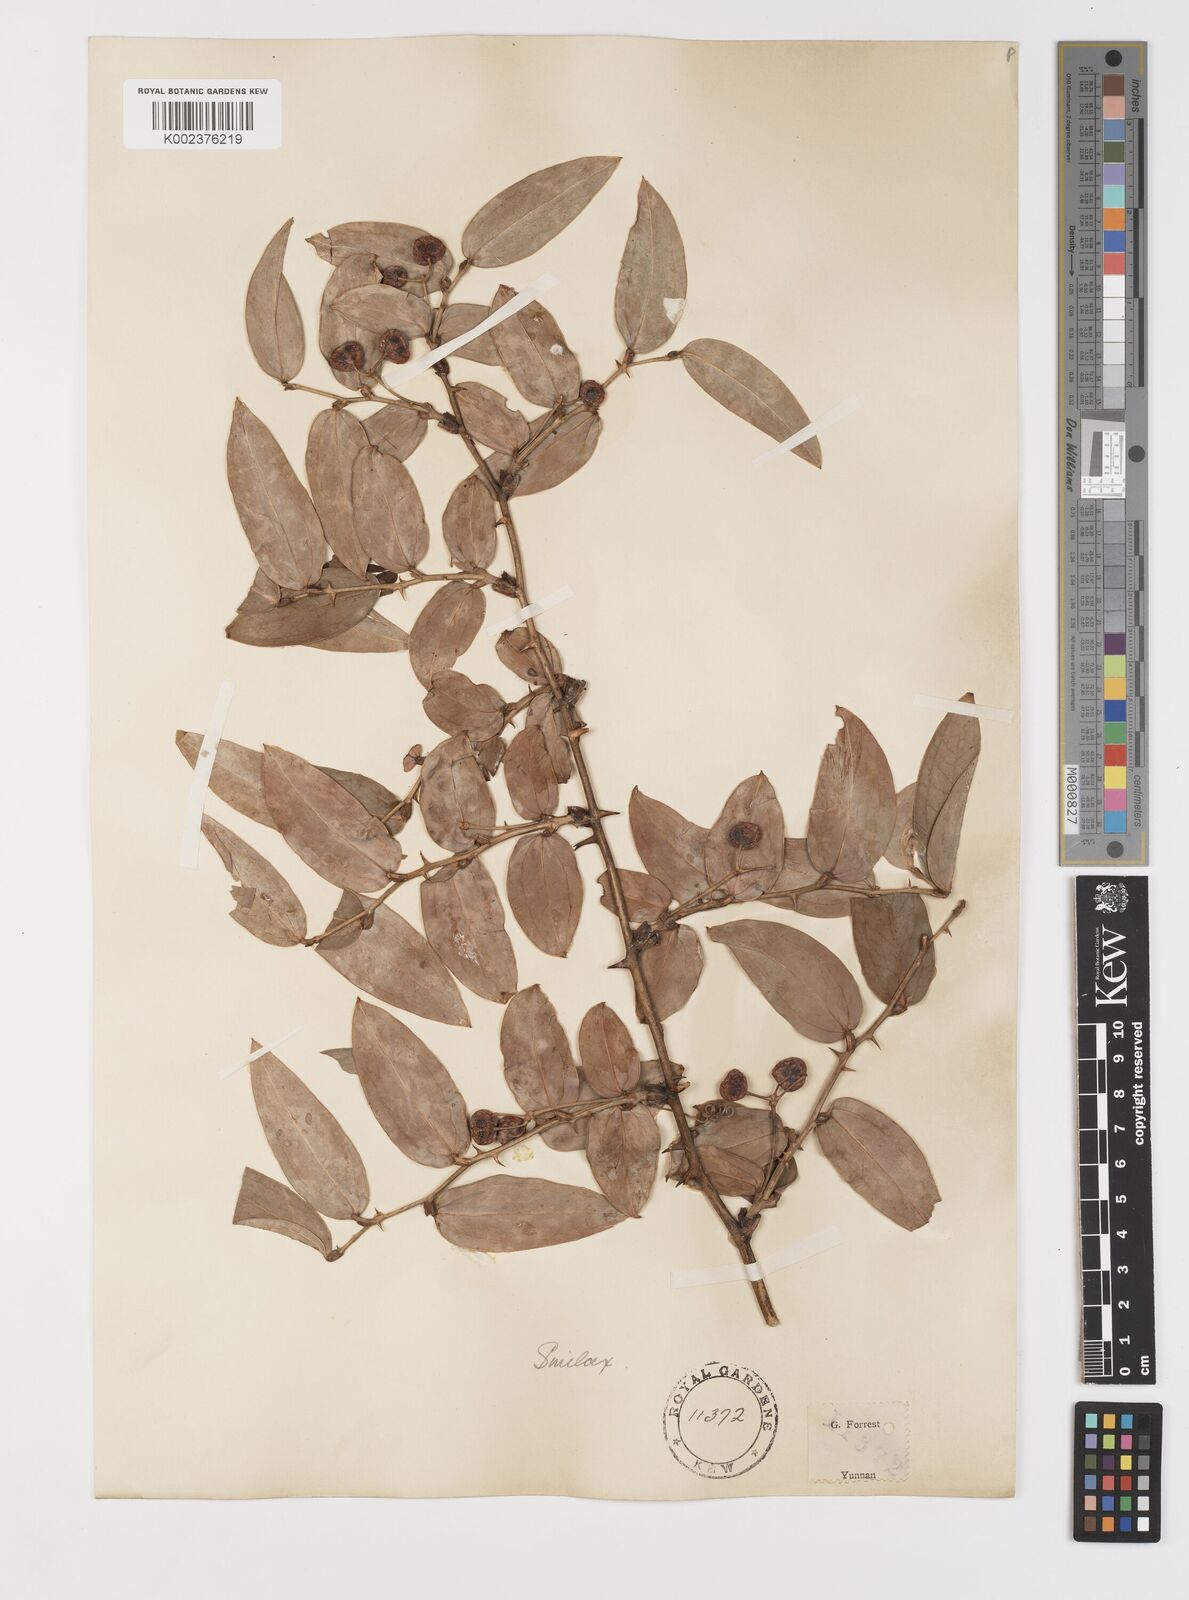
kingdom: Plantae
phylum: Tracheophyta
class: Liliopsida
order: Liliales
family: Smilacaceae
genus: Smilax
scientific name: Smilax ferox
